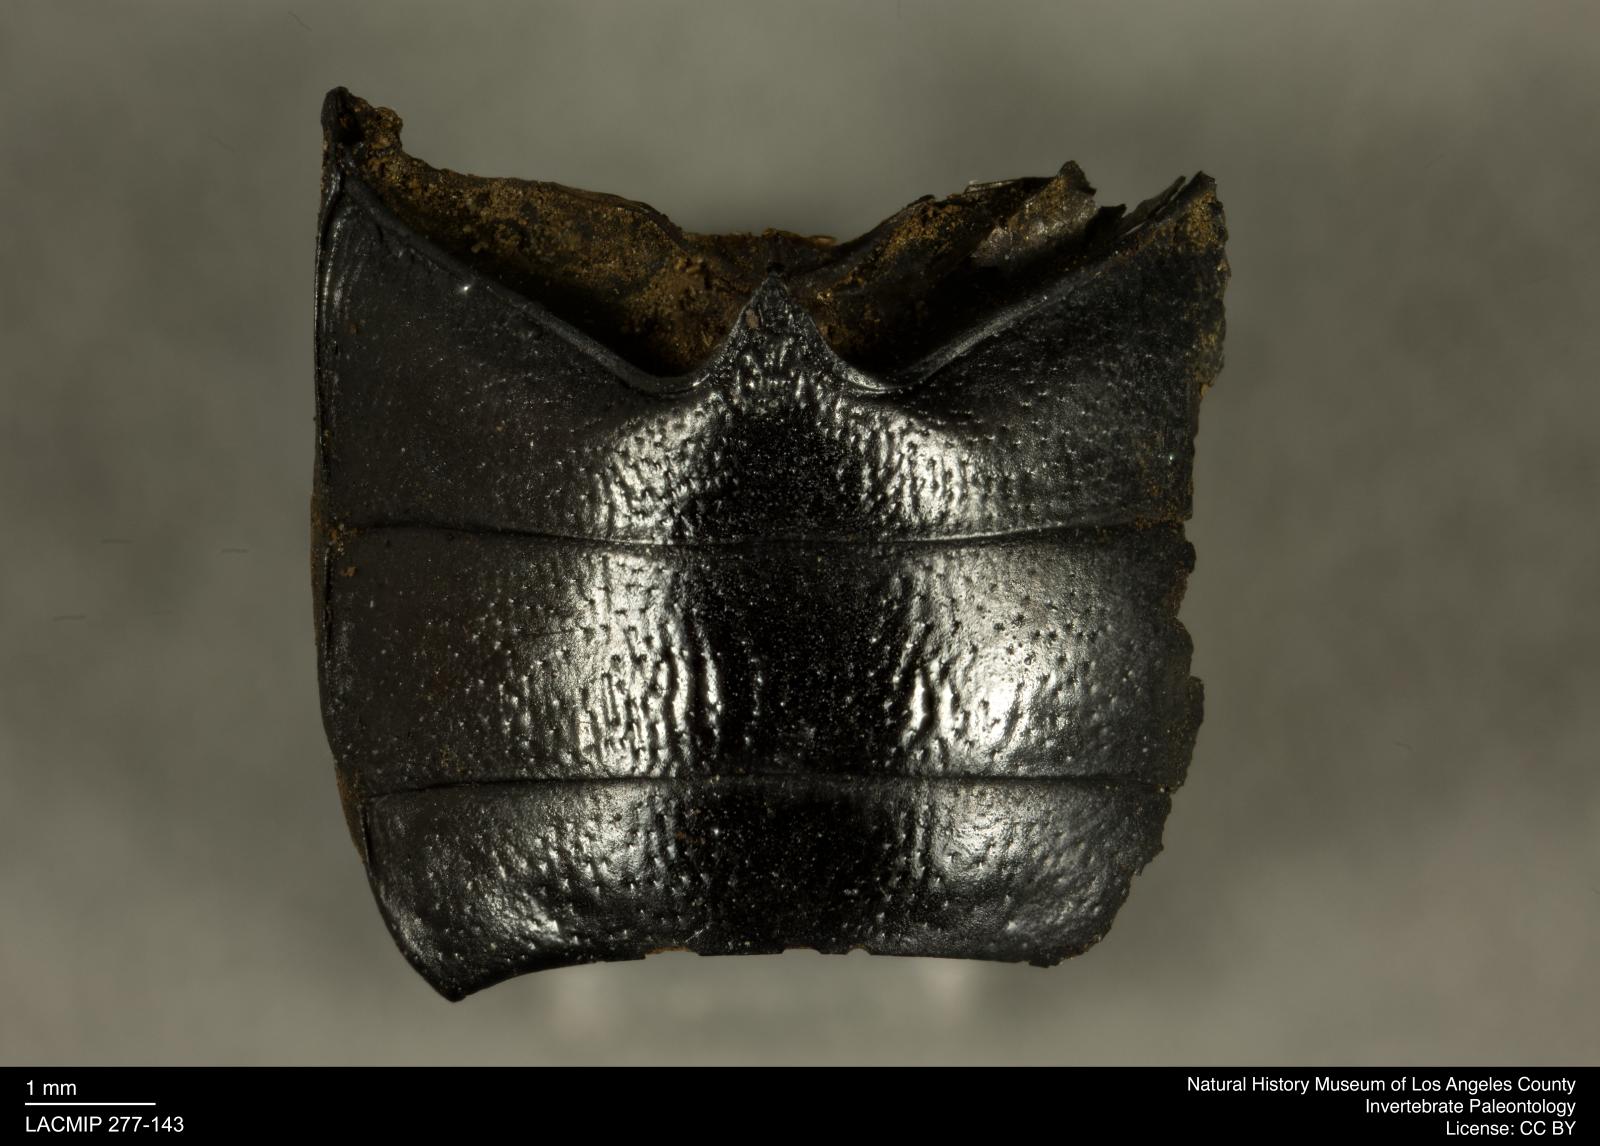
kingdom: Animalia
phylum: Arthropoda
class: Insecta
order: Coleoptera
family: Tenebrionidae
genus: Coniontis
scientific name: Coniontis abdominalis
